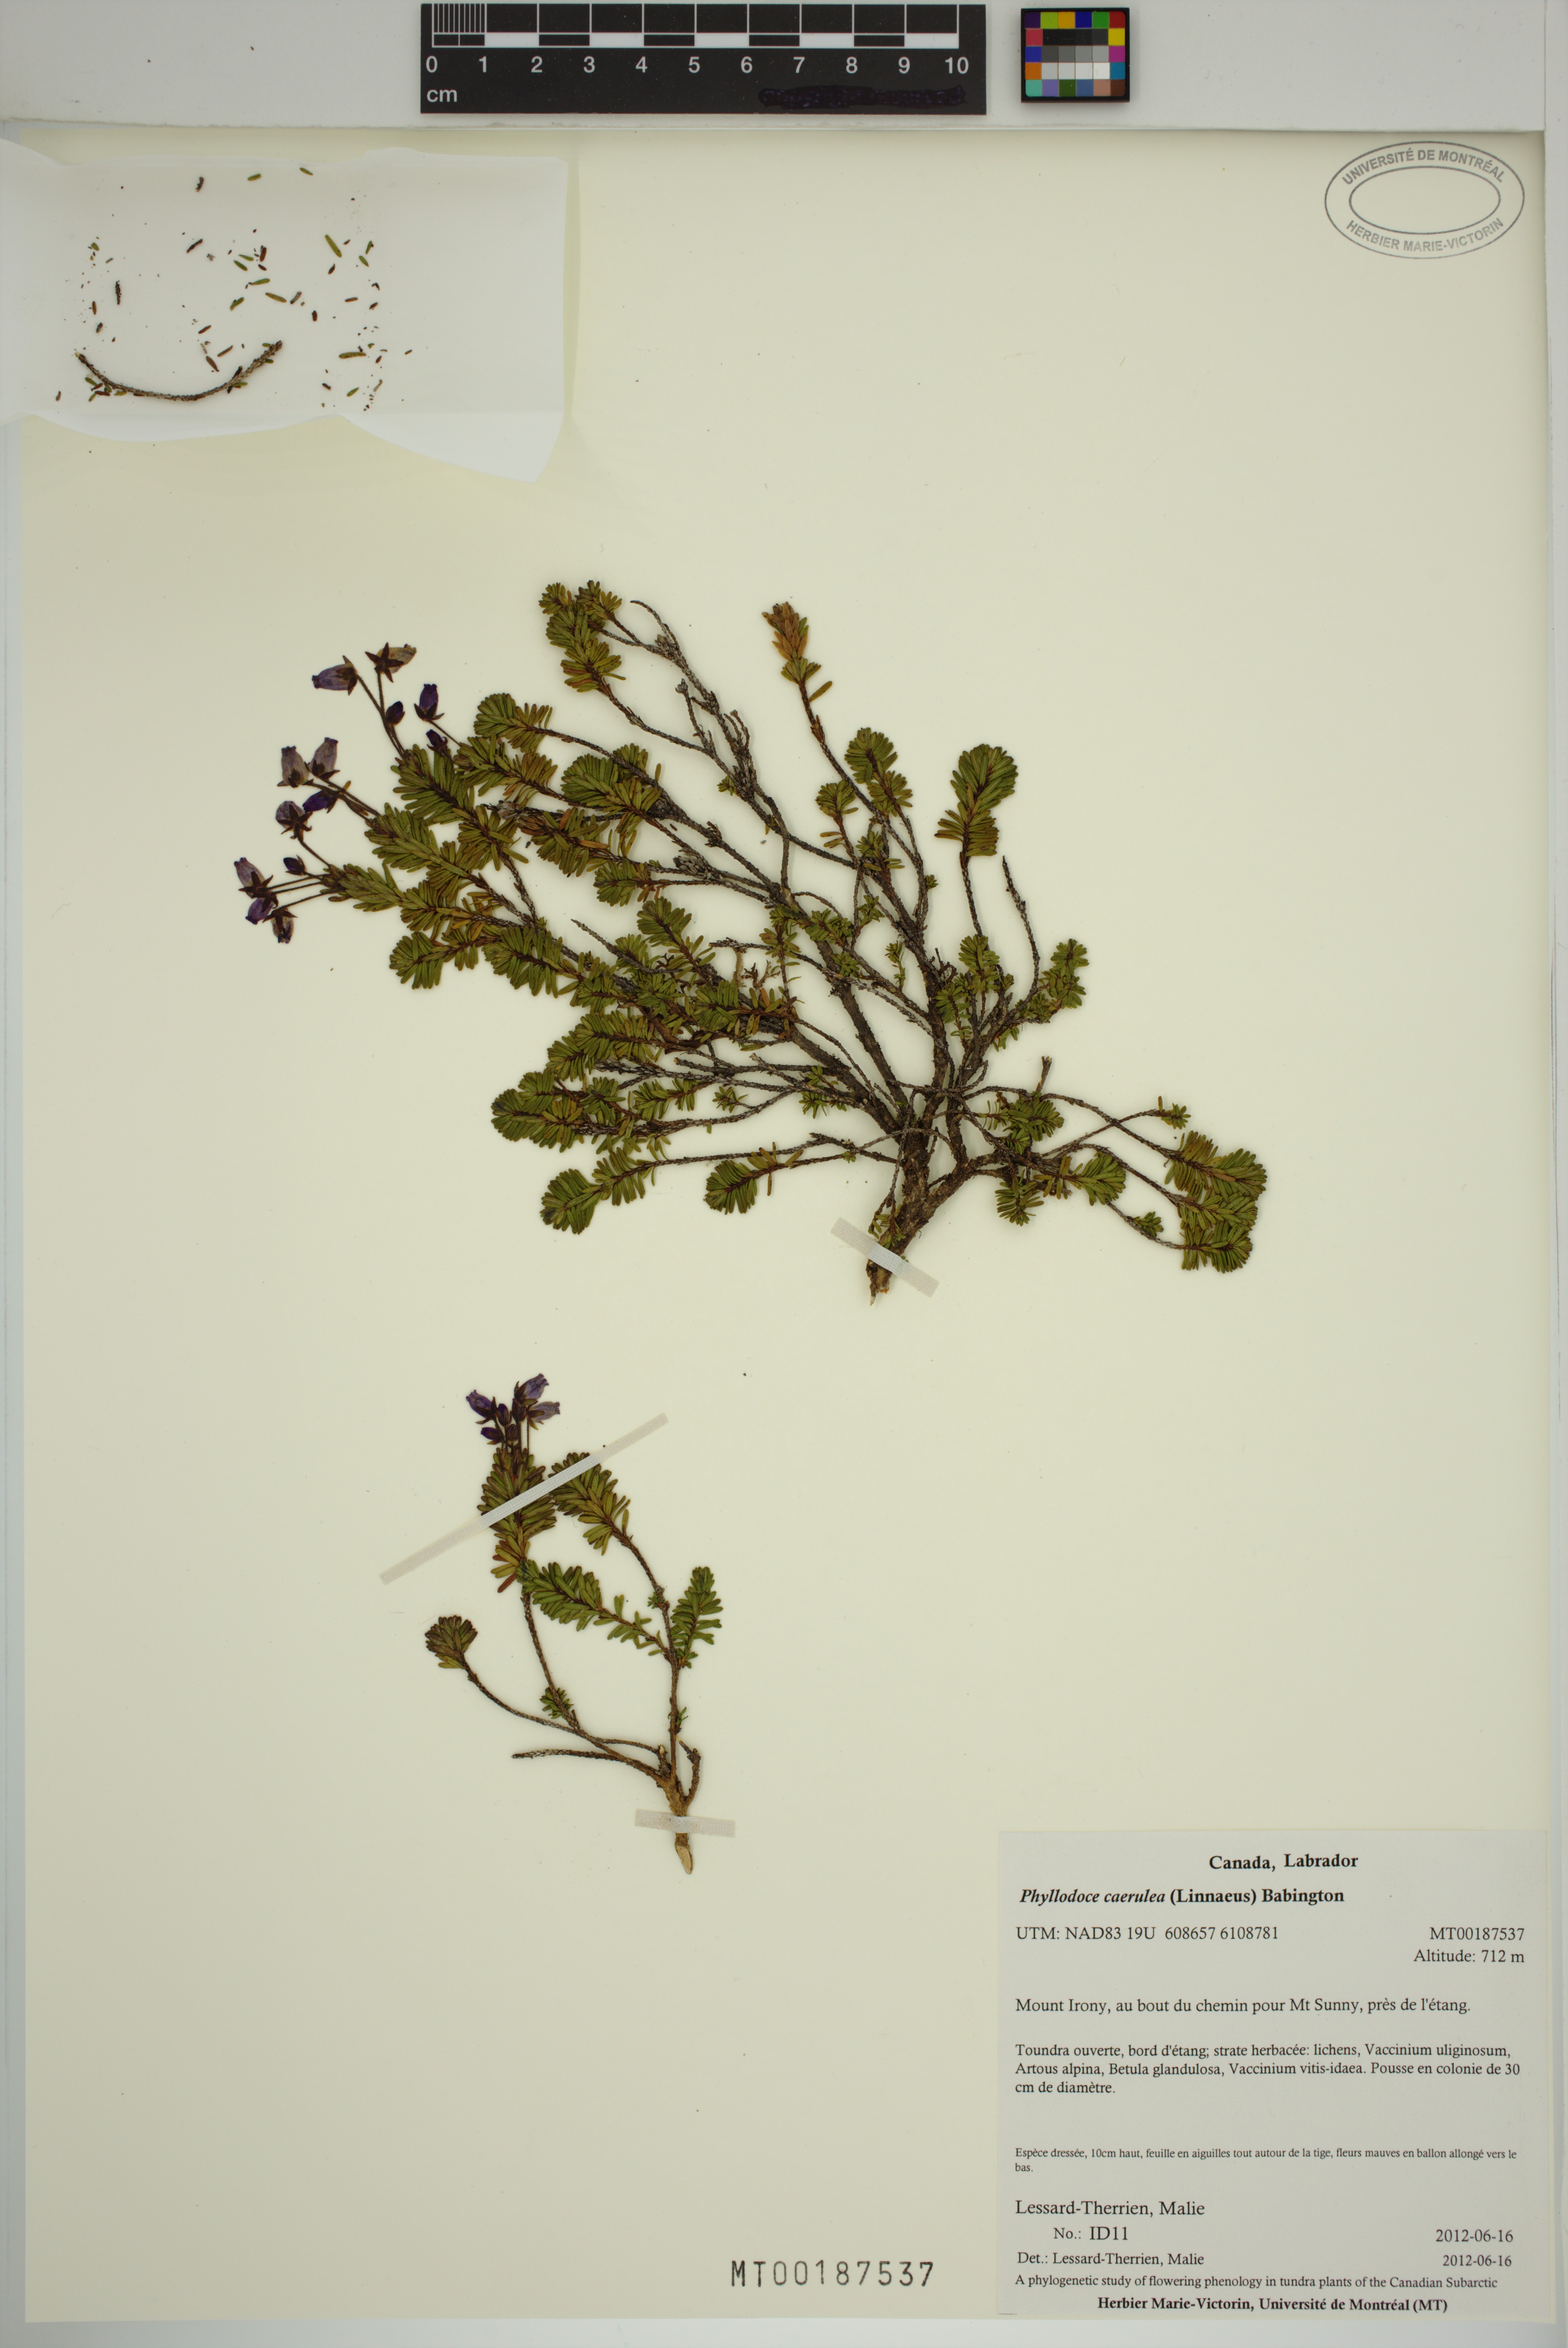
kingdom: Plantae
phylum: Tracheophyta
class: Magnoliopsida
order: Ericales
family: Ericaceae
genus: Phyllodoce
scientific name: Phyllodoce caerulea
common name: Blue heath
